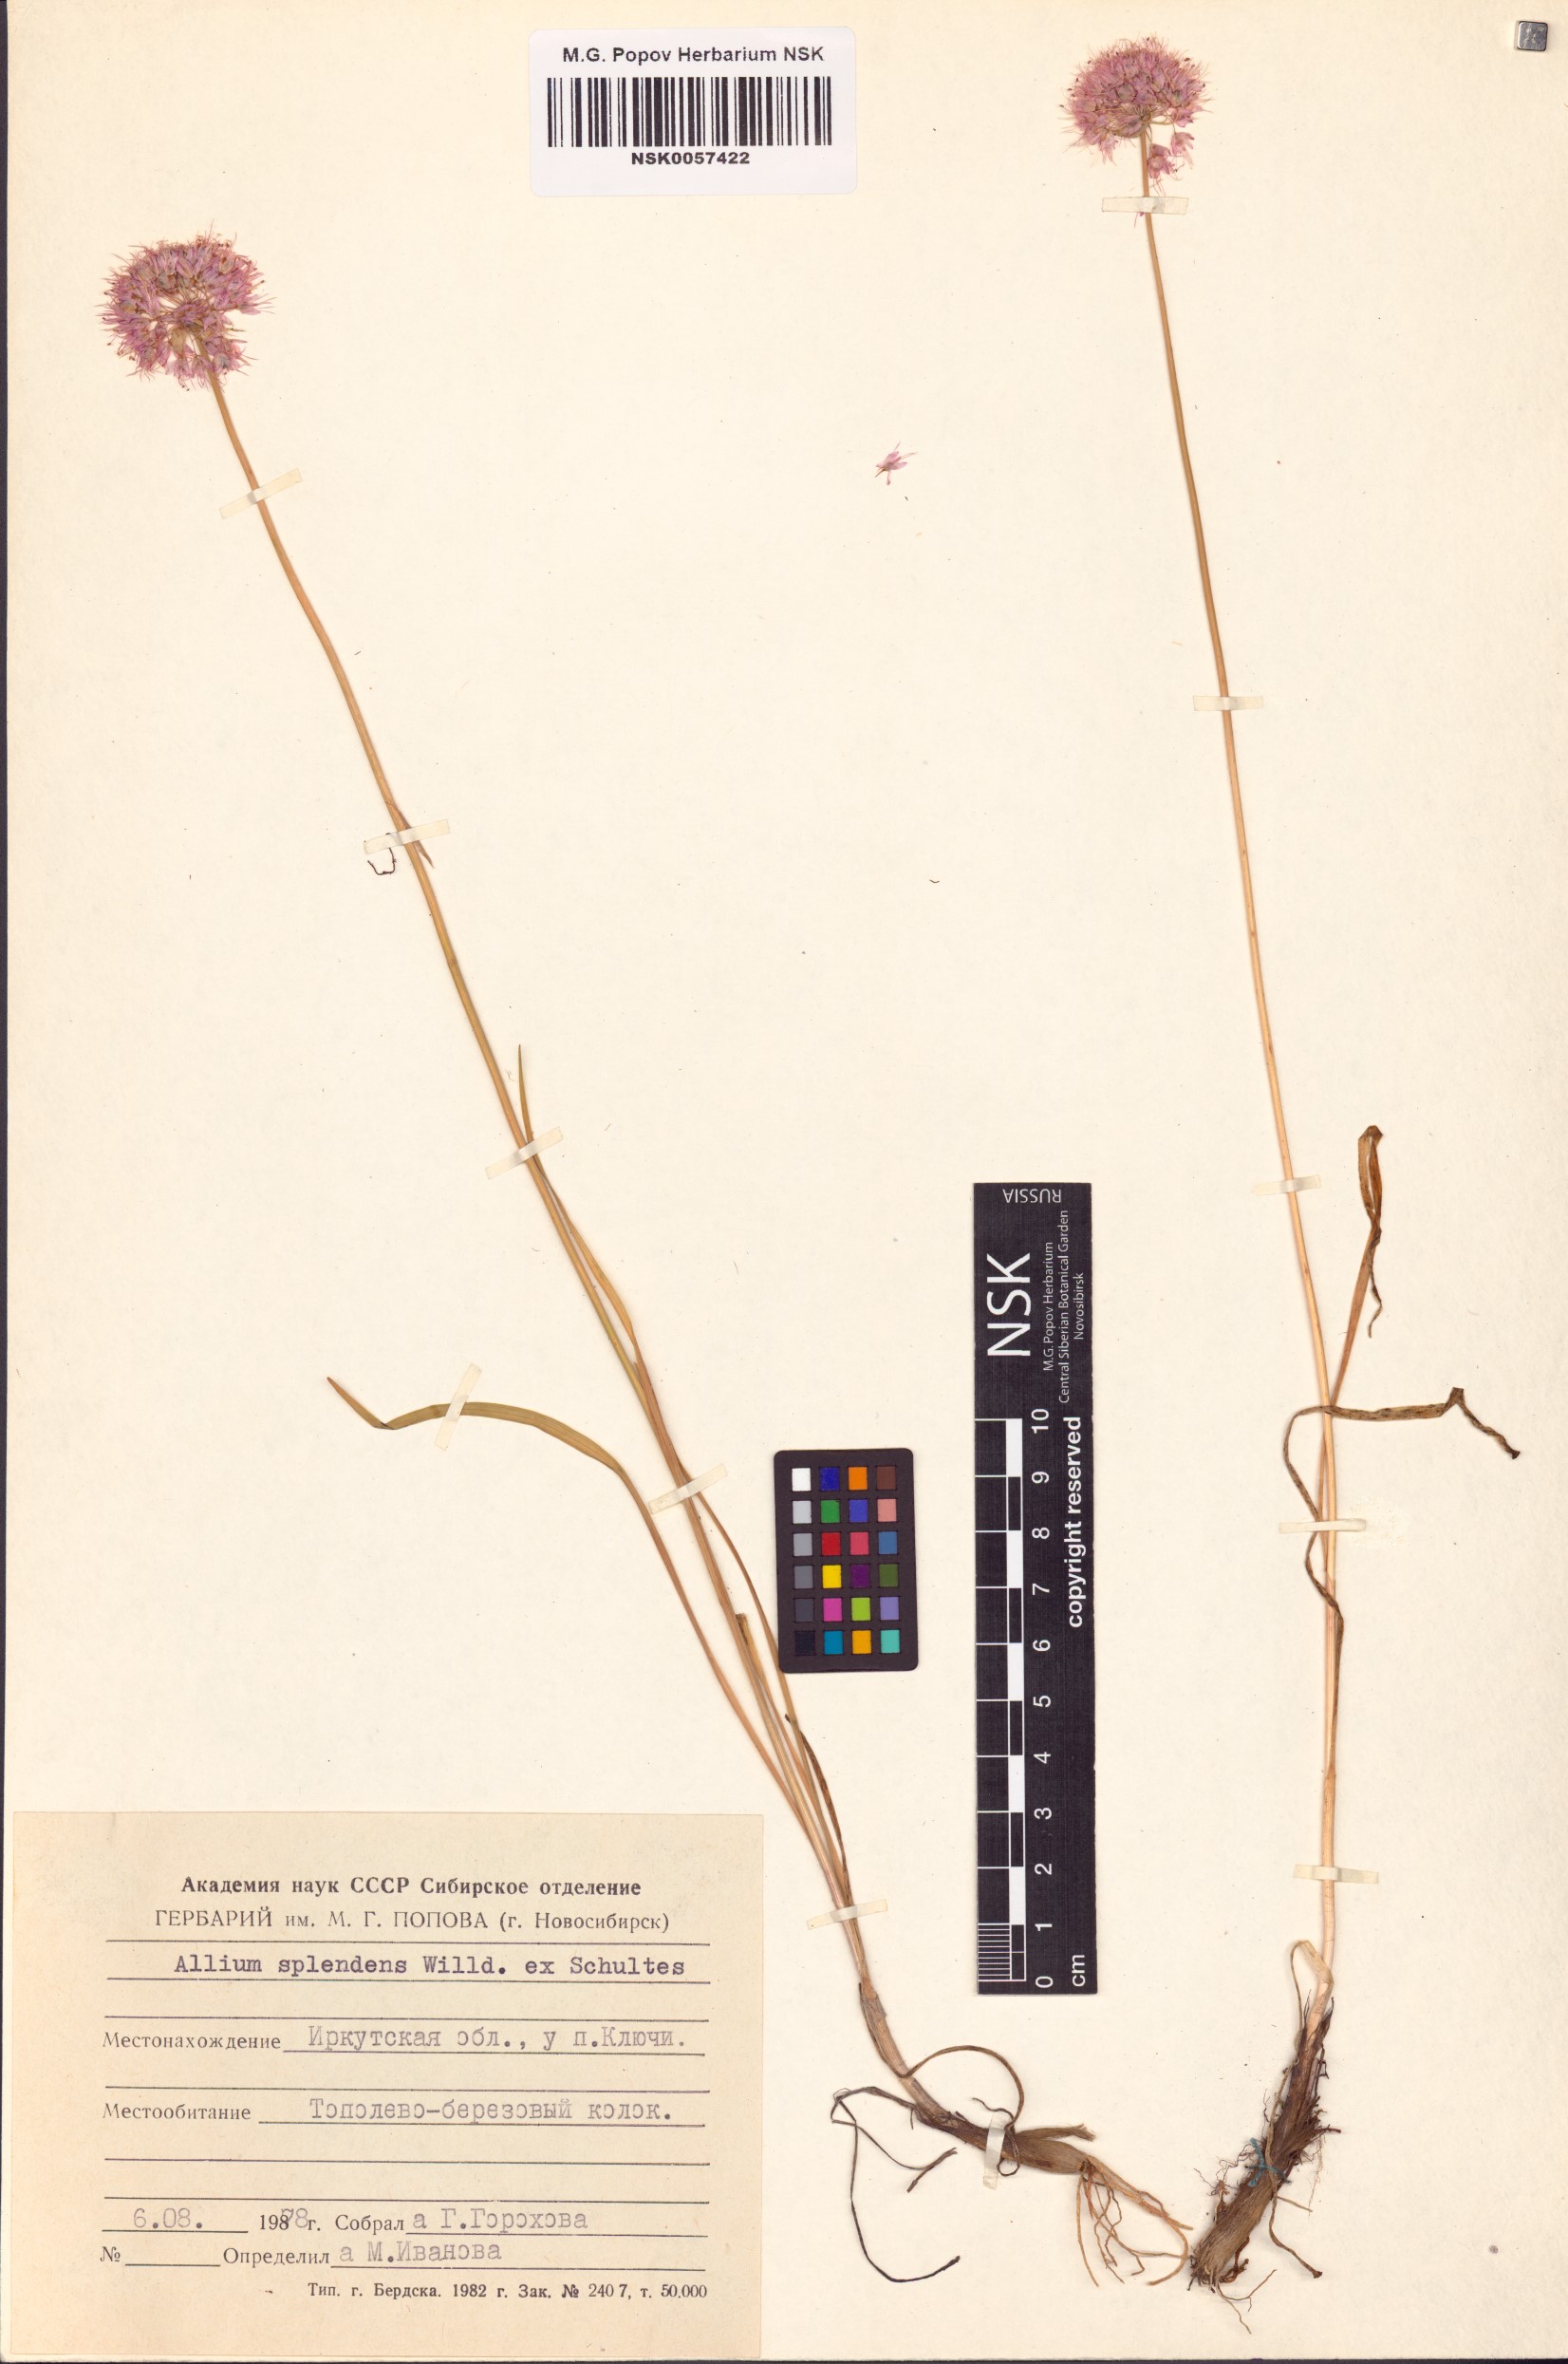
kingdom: Plantae
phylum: Tracheophyta
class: Liliopsida
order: Asparagales
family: Amaryllidaceae
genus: Allium
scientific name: Allium splendens
